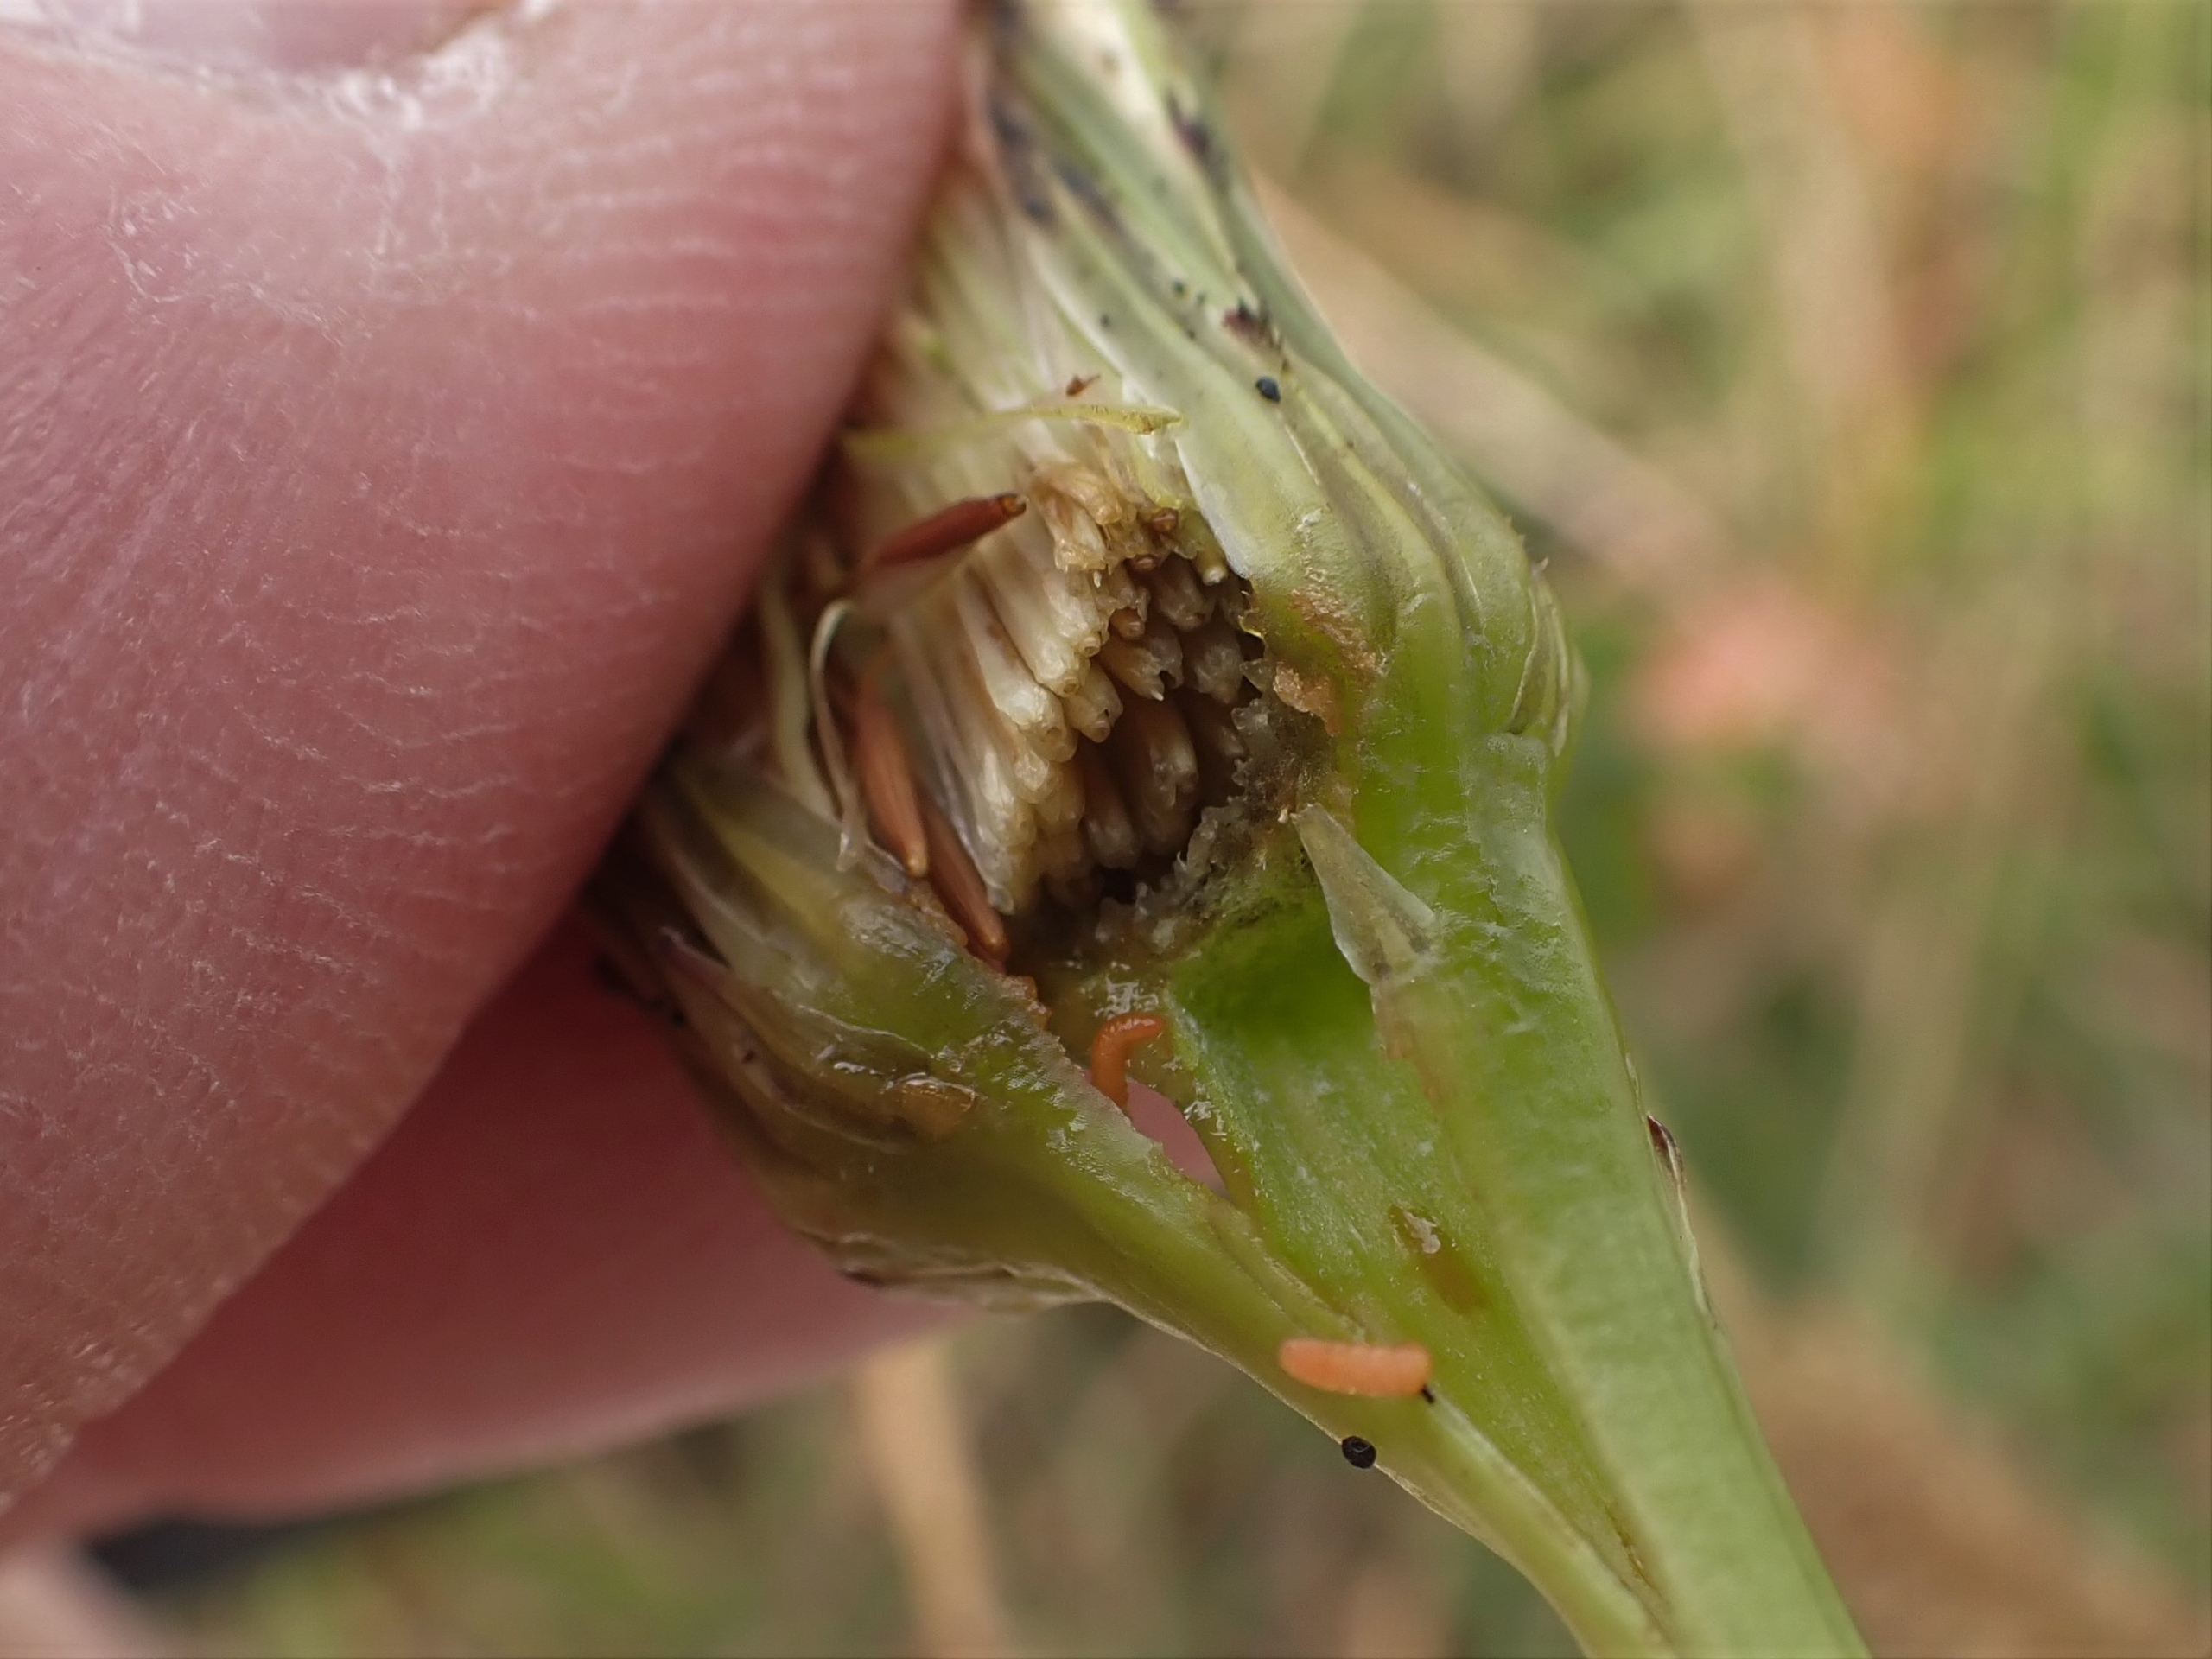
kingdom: Animalia
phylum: Arthropoda
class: Insecta
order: Diptera
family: Cecidomyiidae
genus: Jaapiella
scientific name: Jaapiella hypochoeridis
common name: Orange kongepengalmyg
